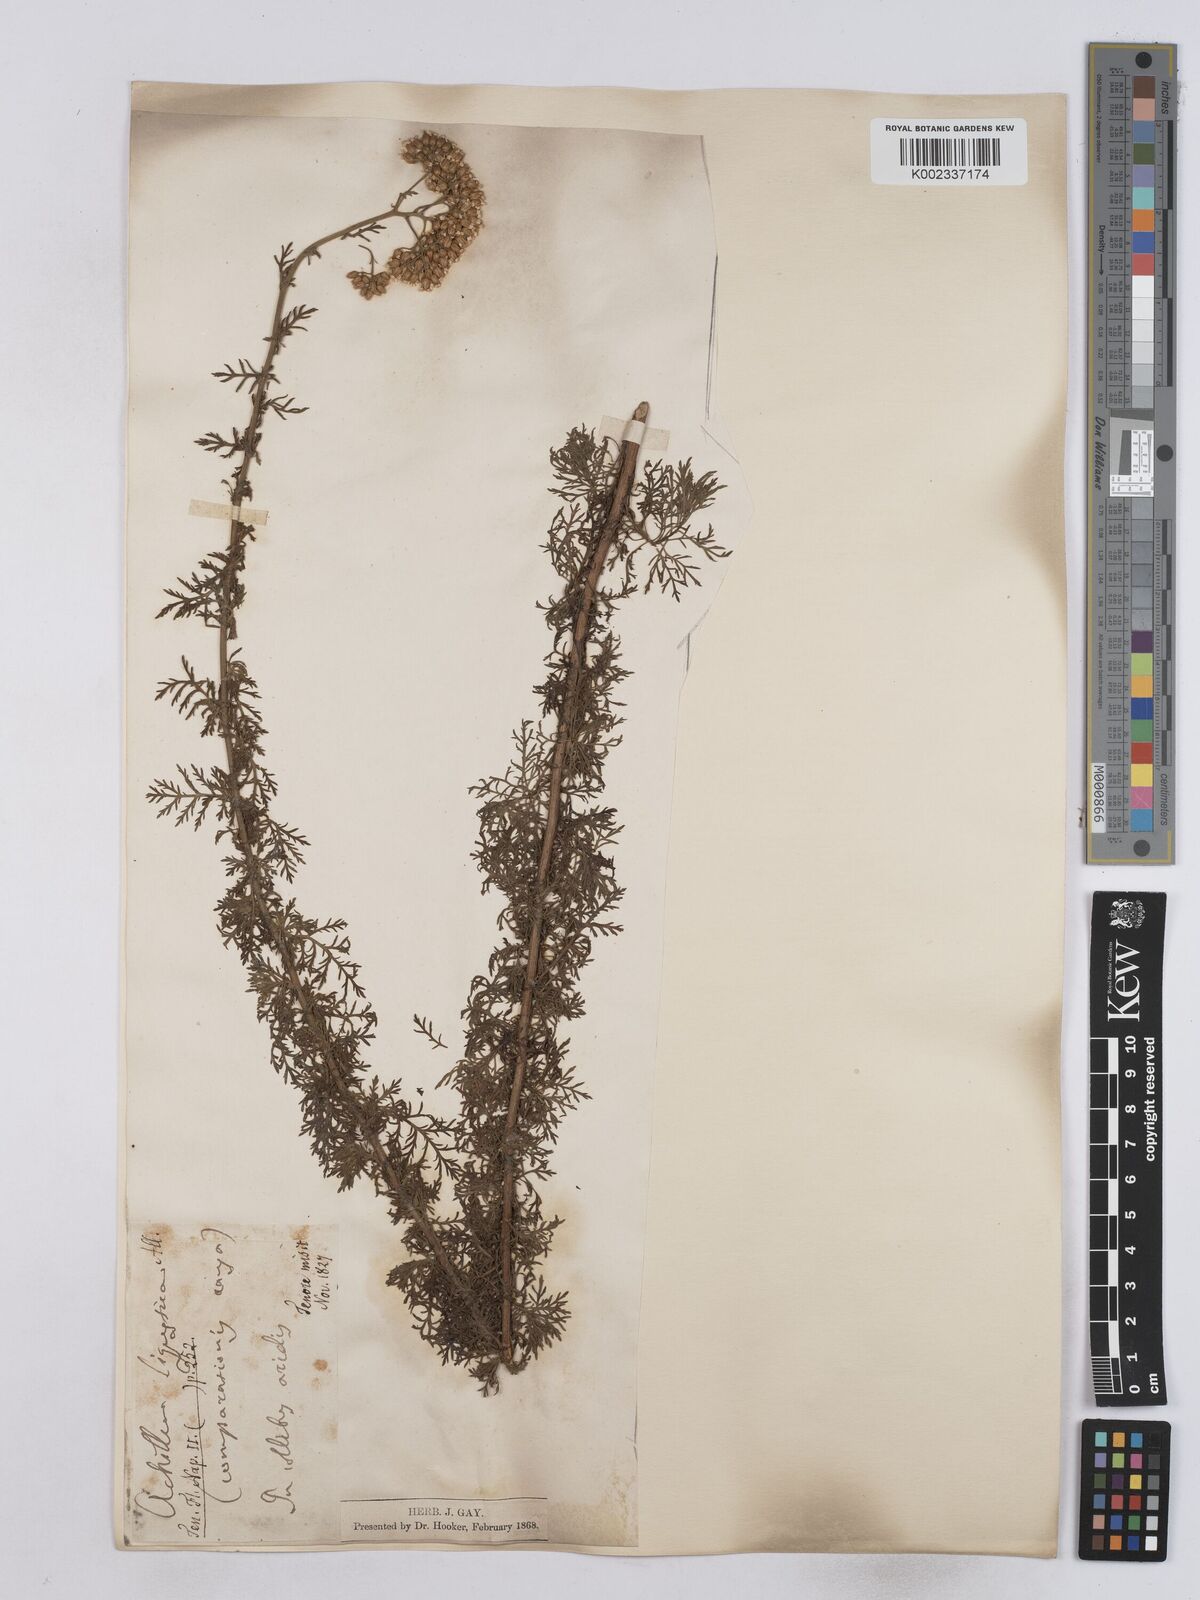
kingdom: Plantae
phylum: Tracheophyta
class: Magnoliopsida
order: Asterales
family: Asteraceae
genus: Achillea
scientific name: Achillea ligustica
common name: Southern yarrow
